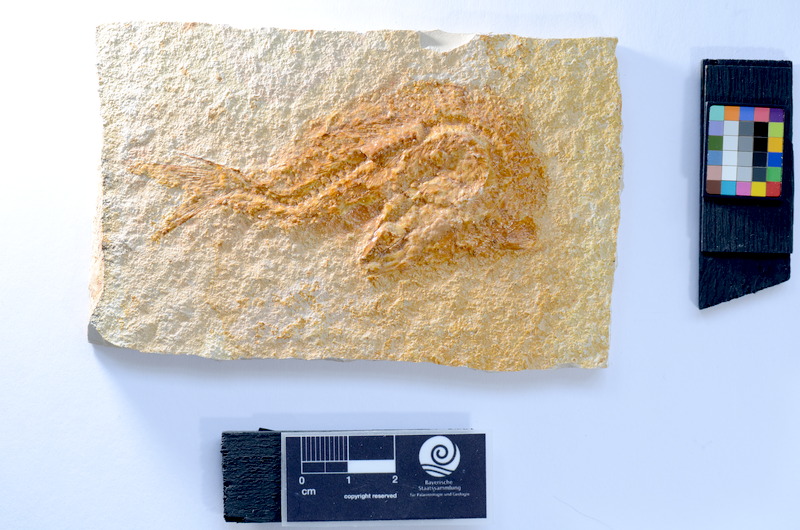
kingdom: Animalia
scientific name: Animalia
